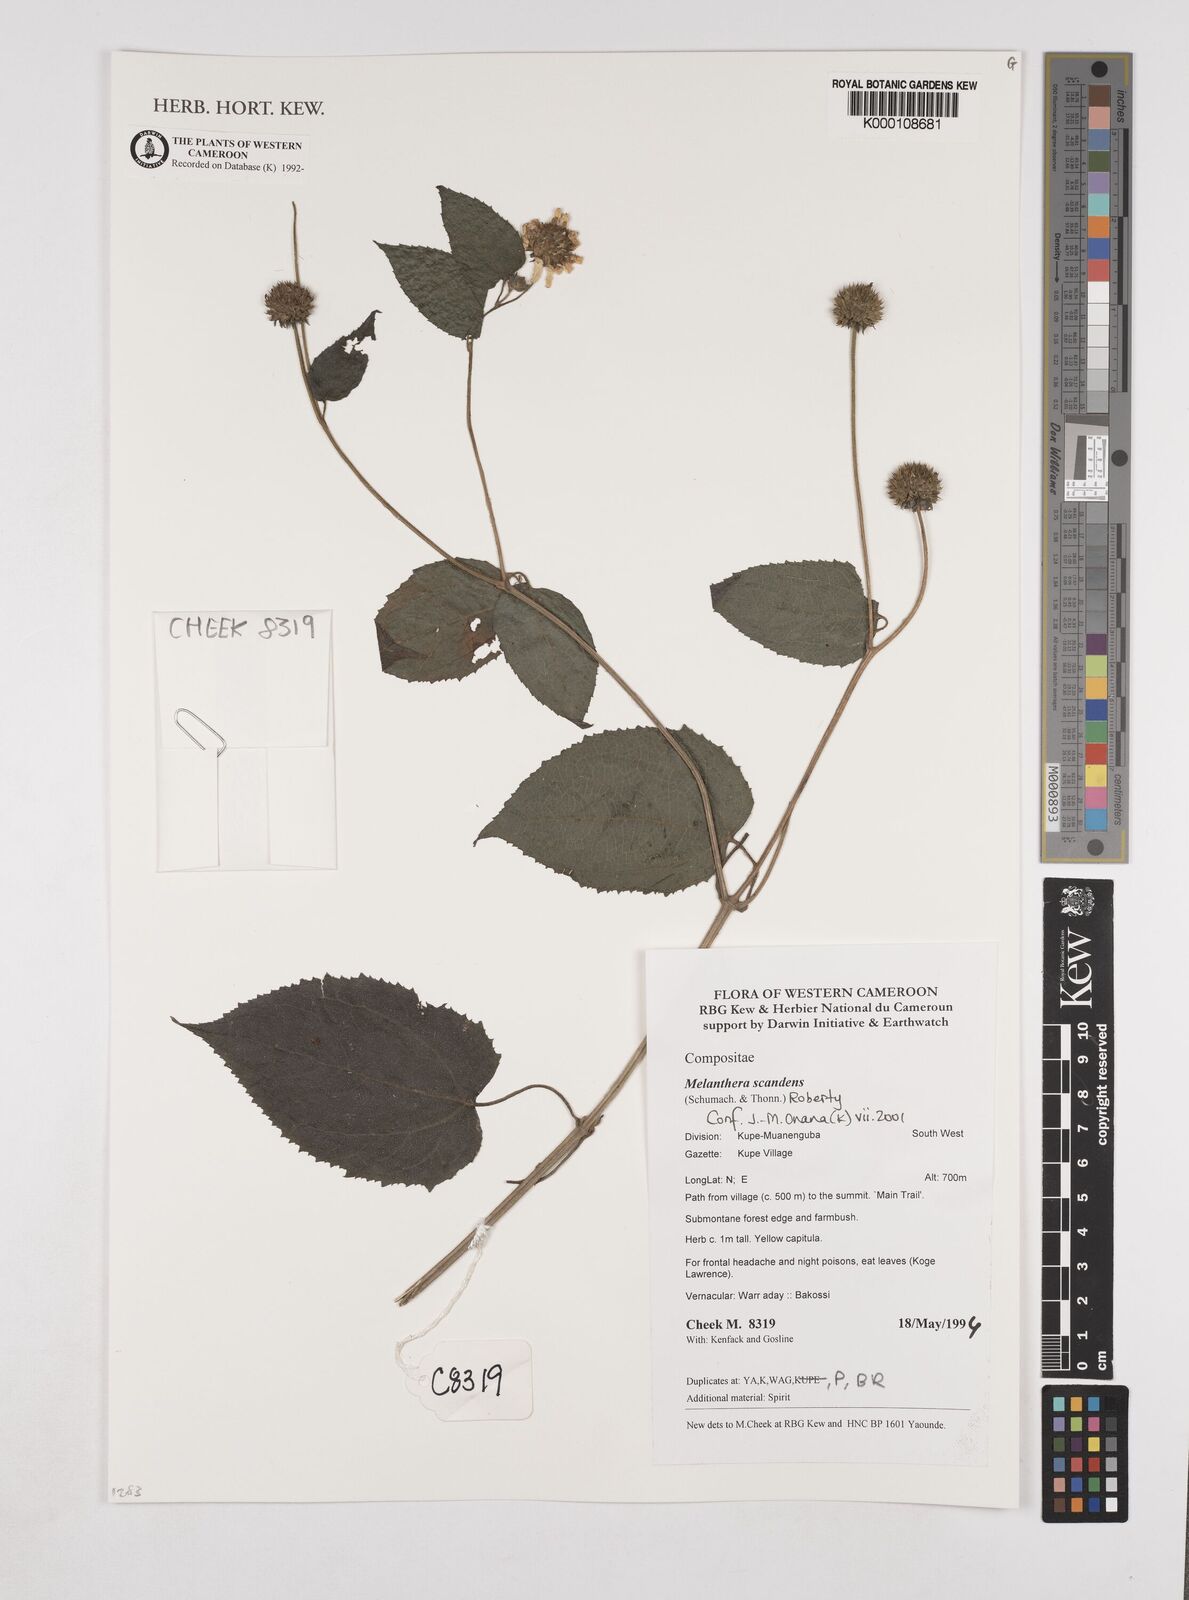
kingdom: Plantae
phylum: Tracheophyta
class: Magnoliopsida
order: Asterales
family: Asteraceae
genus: Melanthera
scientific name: Melanthera
